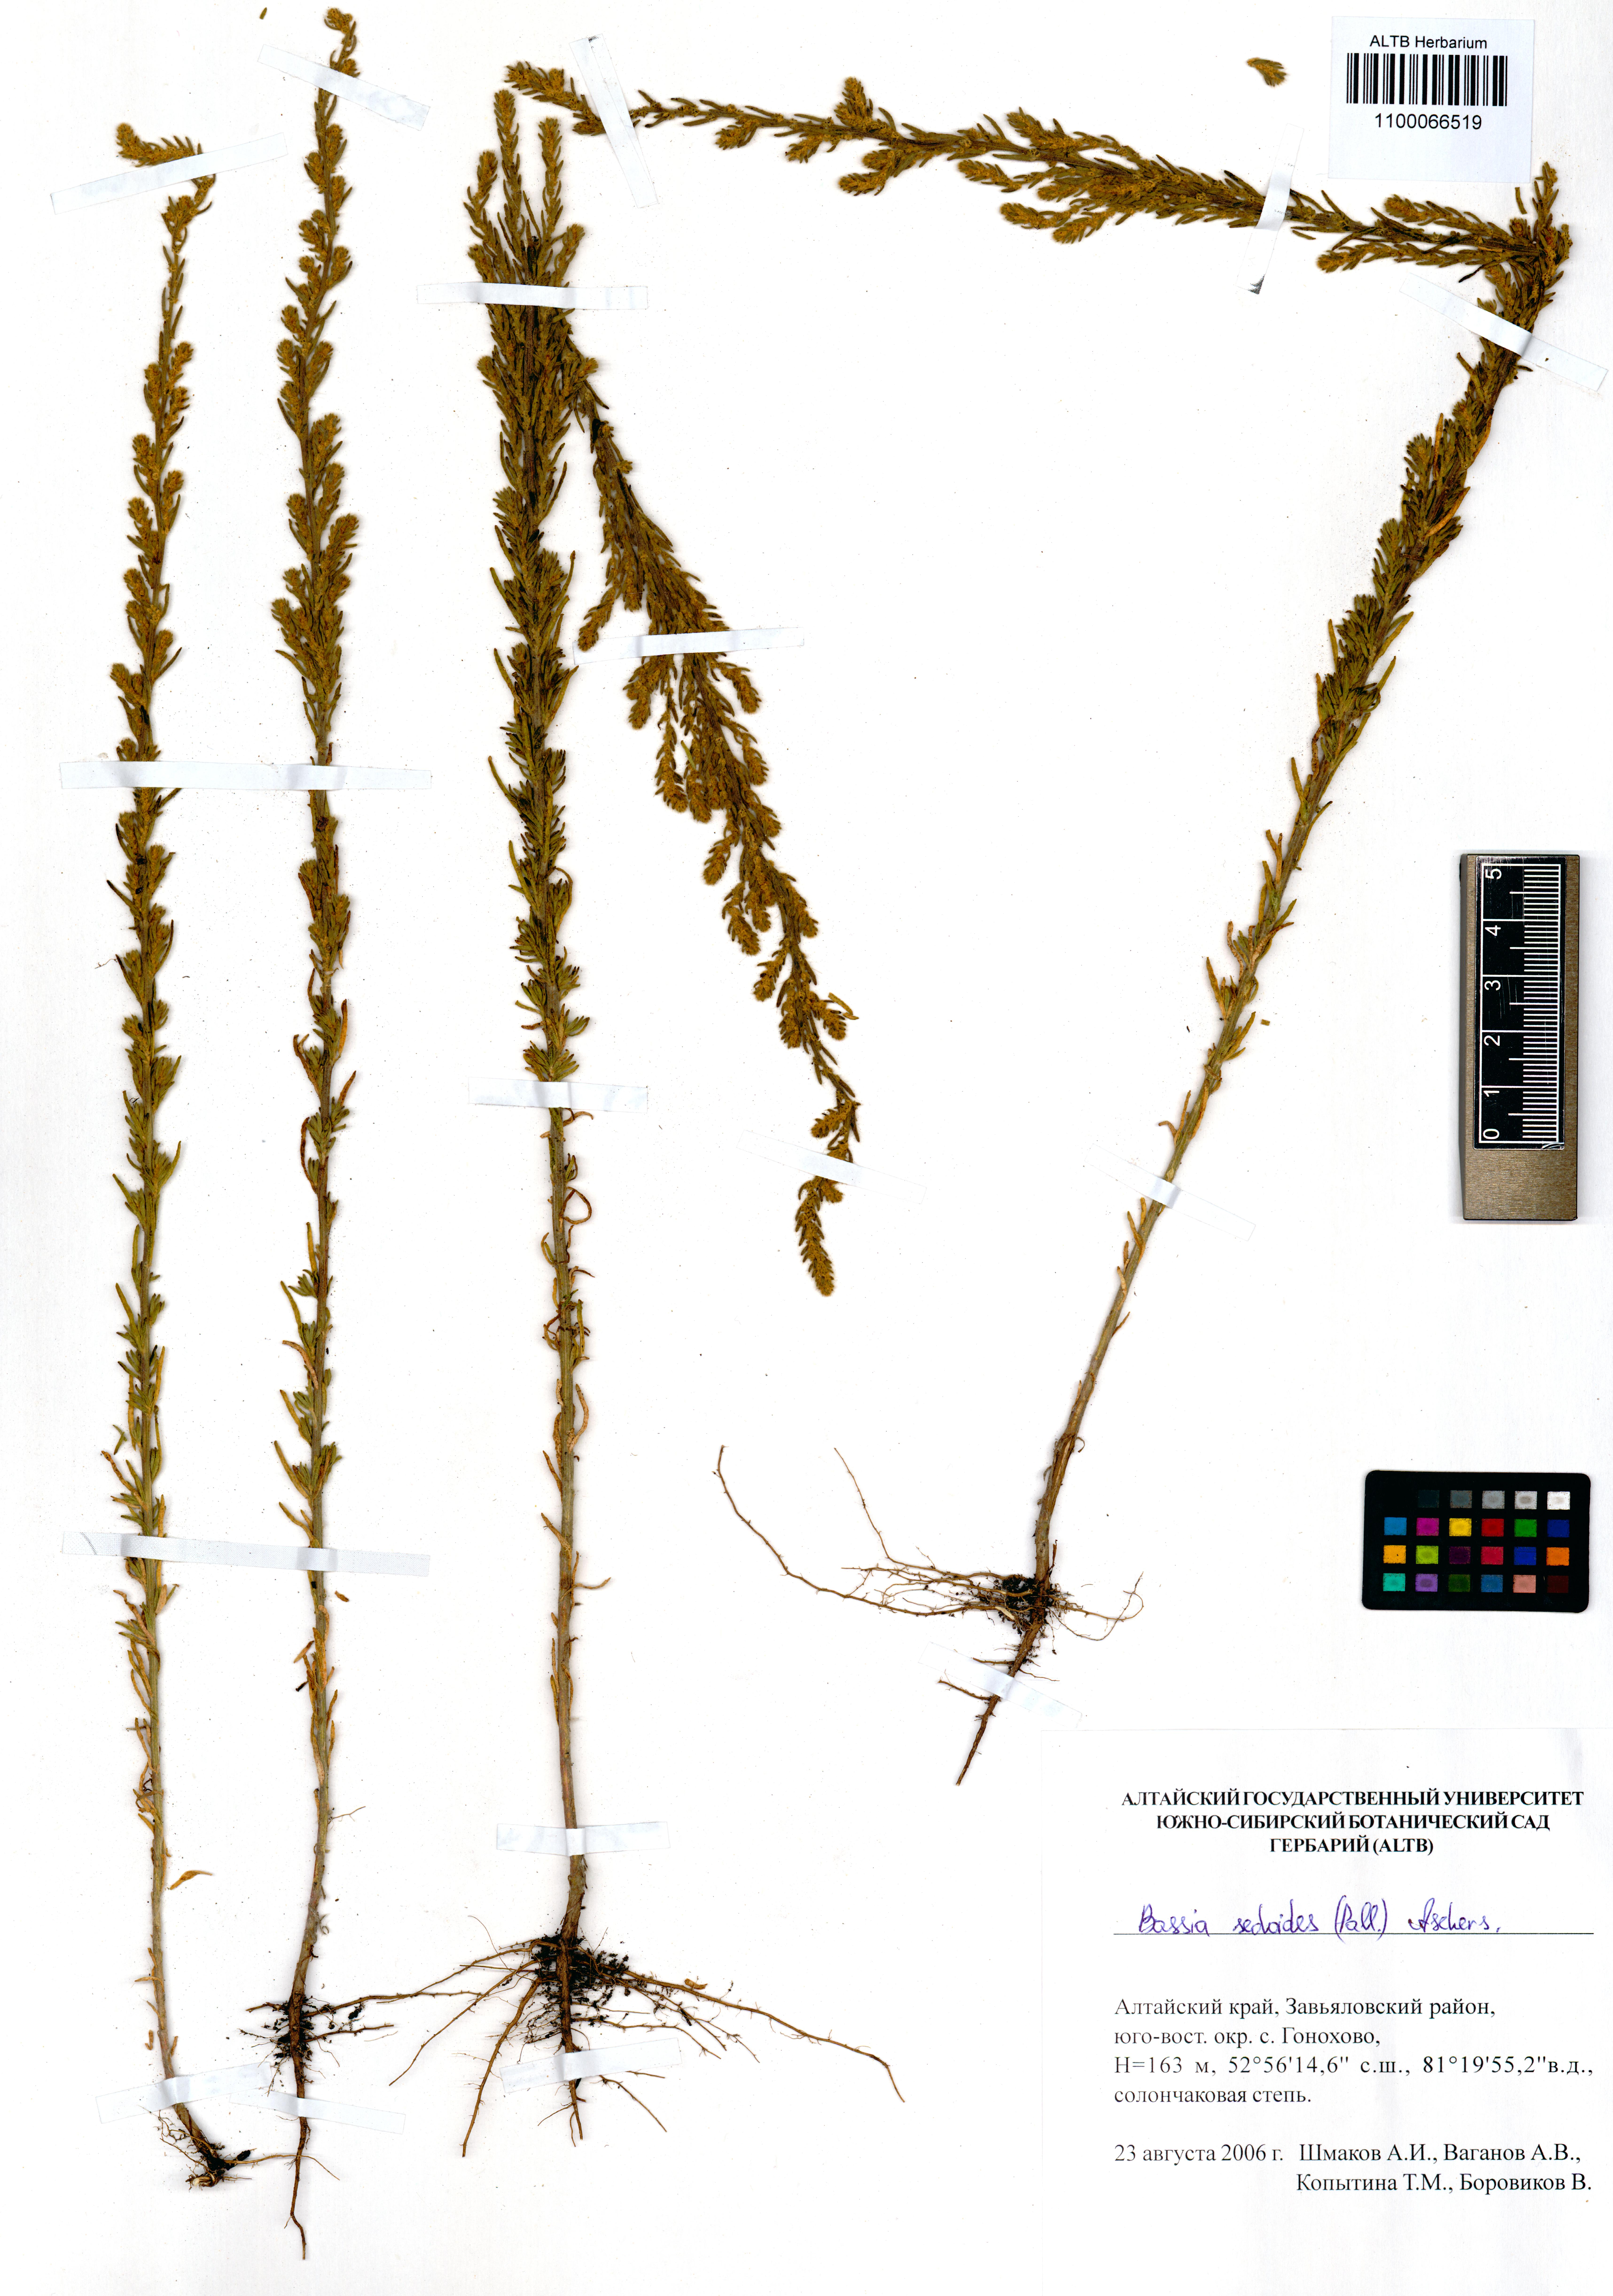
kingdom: Plantae
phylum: Tracheophyta
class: Magnoliopsida
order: Caryophyllales
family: Amaranthaceae
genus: Sedobassia
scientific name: Sedobassia sedoides
